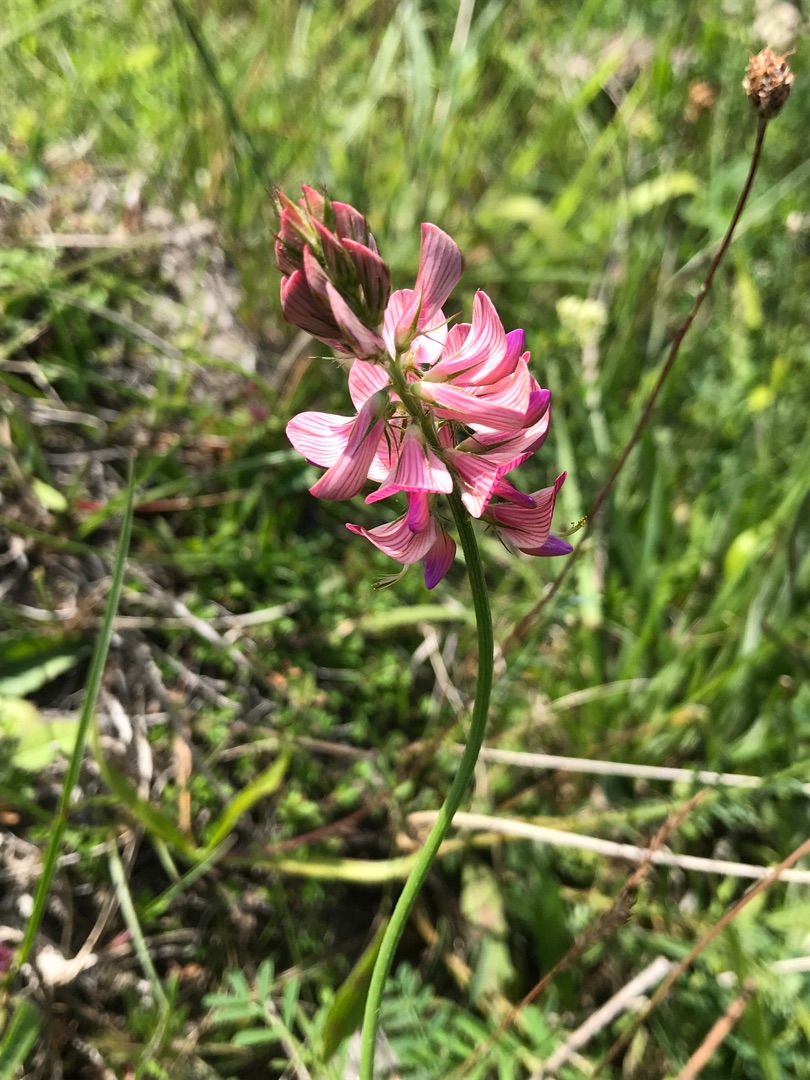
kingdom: Plantae
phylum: Tracheophyta
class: Magnoliopsida
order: Fabales
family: Fabaceae
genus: Onobrychis
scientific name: Onobrychis viciifolia
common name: Esparsette
